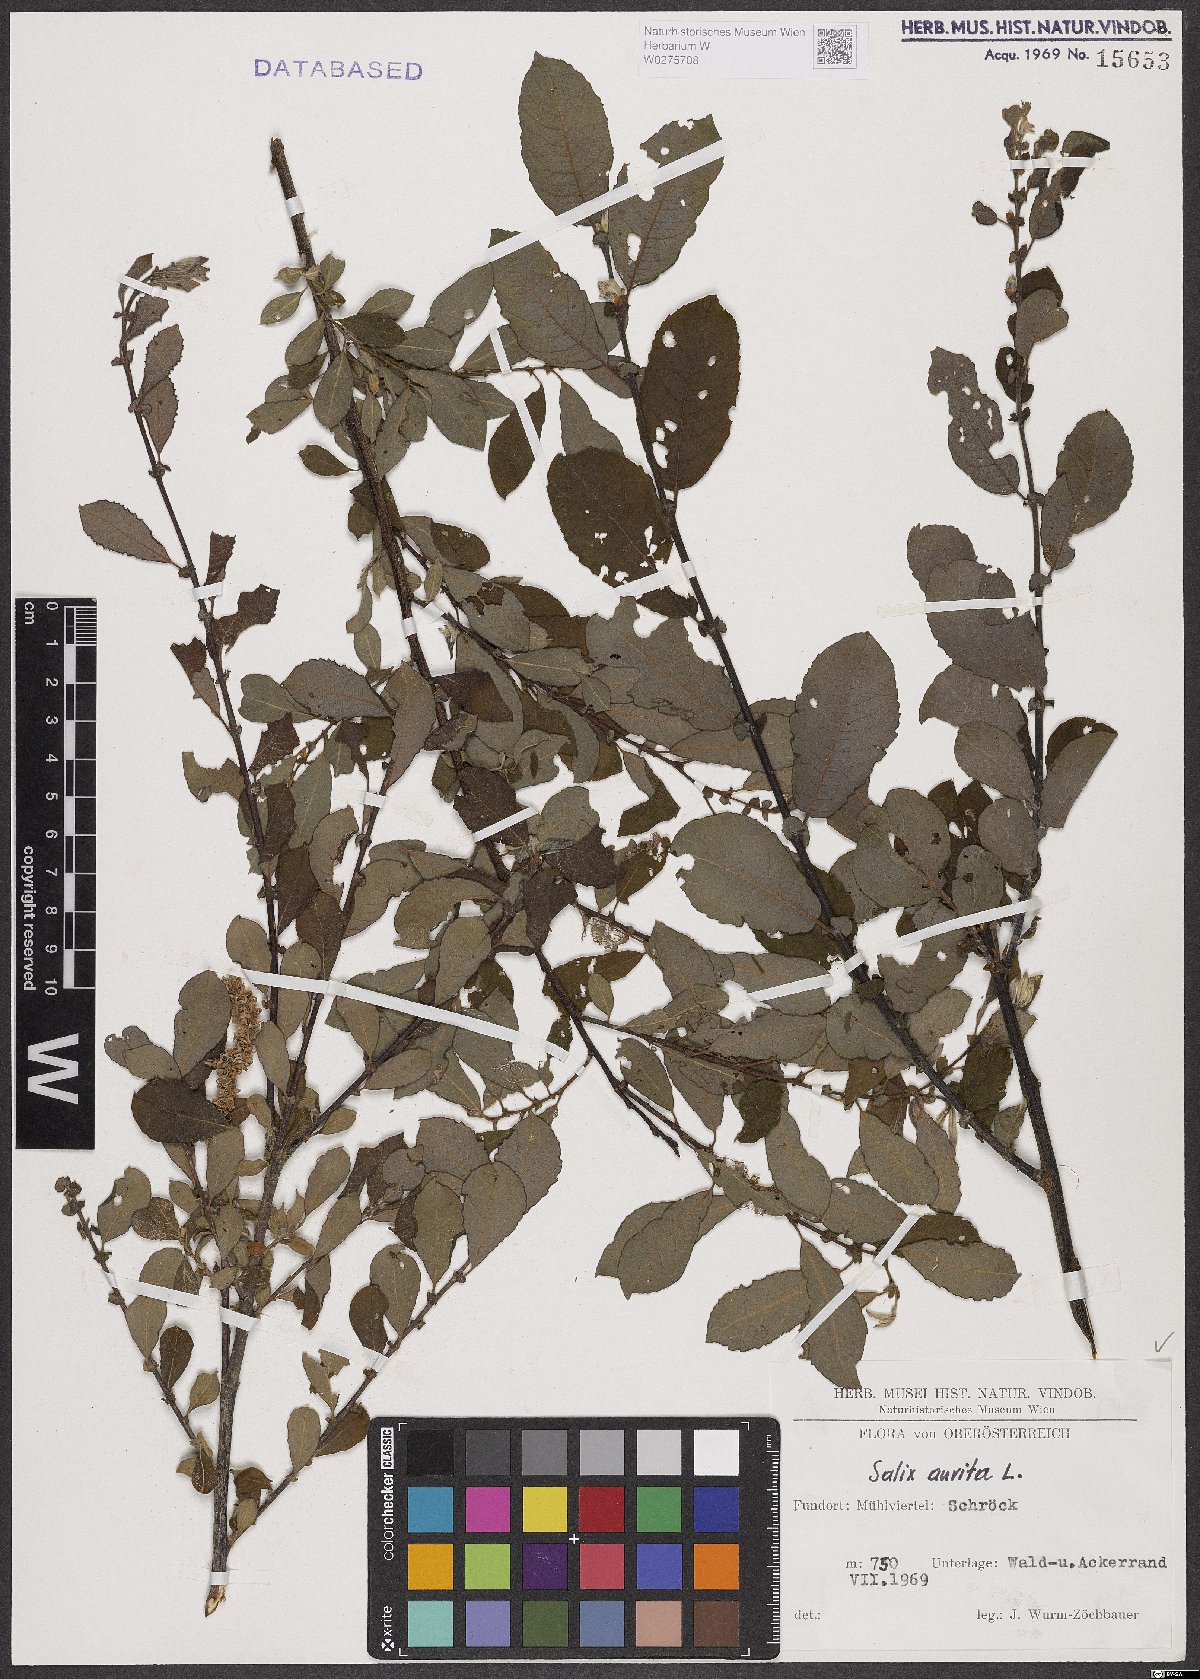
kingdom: Plantae
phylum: Tracheophyta
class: Magnoliopsida
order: Malpighiales
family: Salicaceae
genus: Salix
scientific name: Salix aurita
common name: Eared willow
